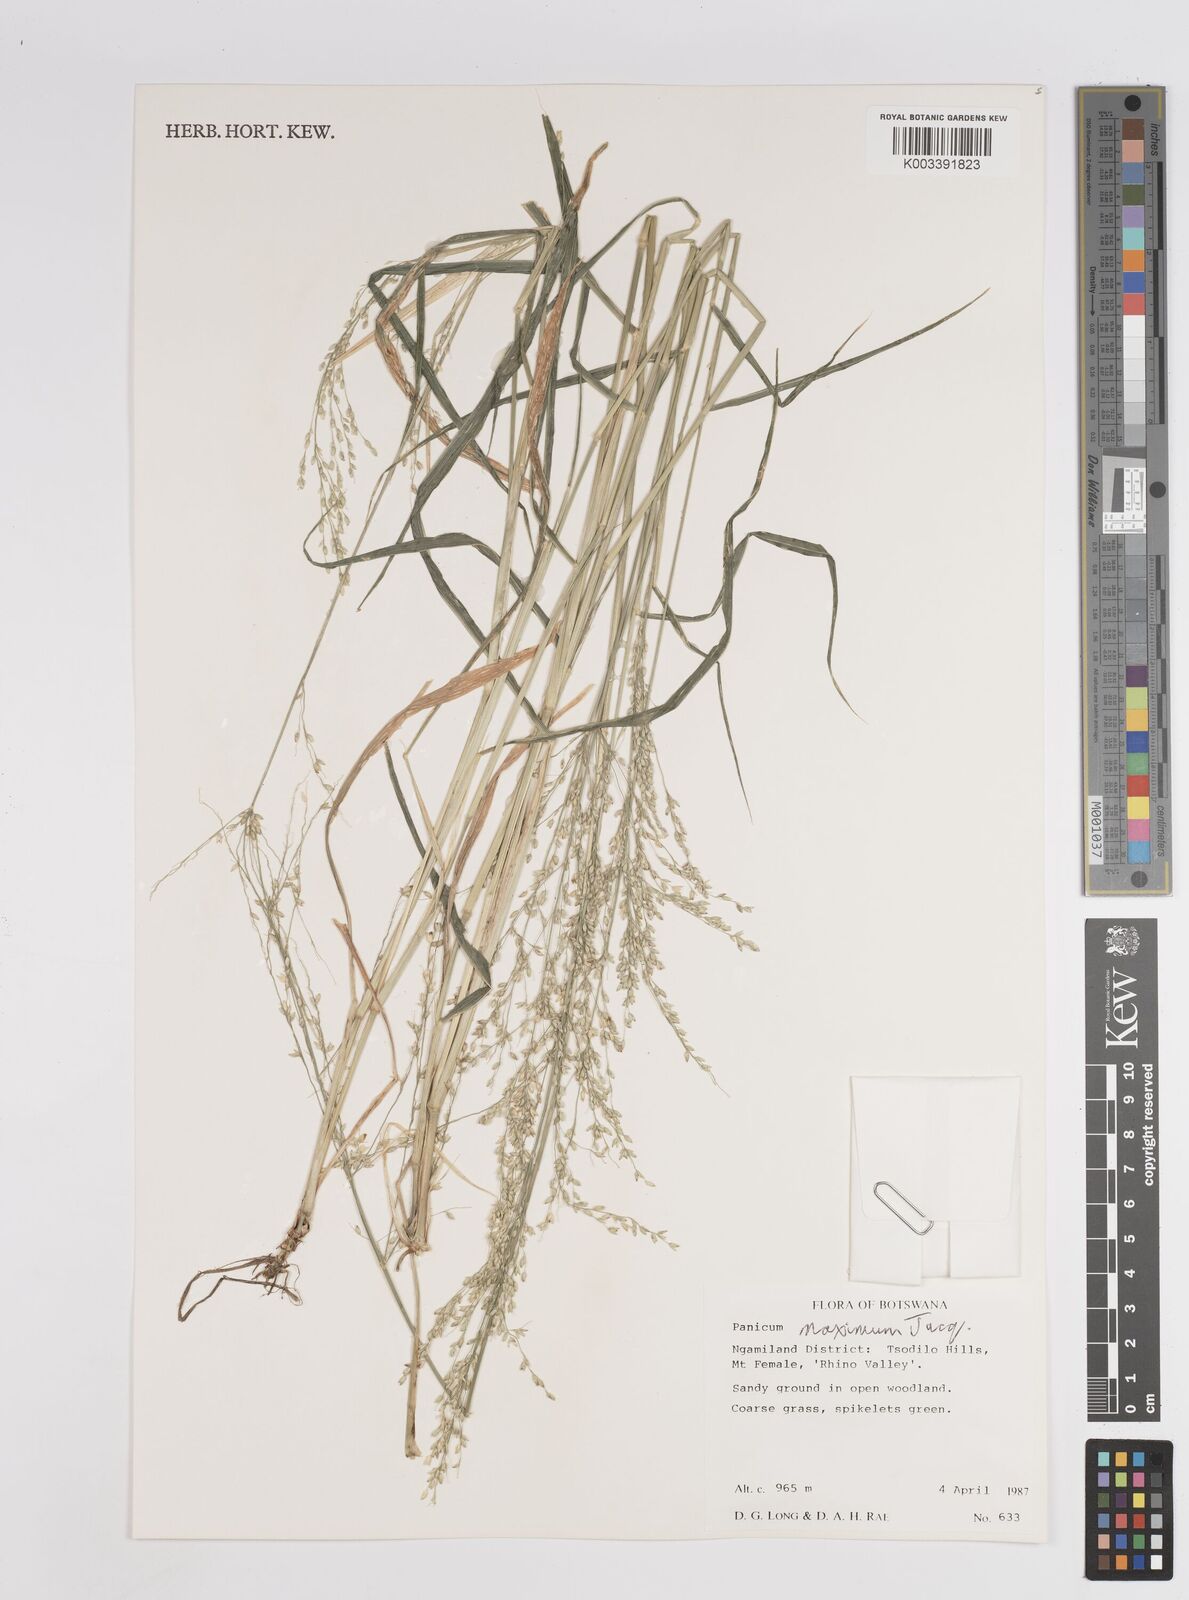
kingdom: Plantae
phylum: Tracheophyta
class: Liliopsida
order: Poales
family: Poaceae
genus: Megathyrsus
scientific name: Megathyrsus maximus
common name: Guineagrass
